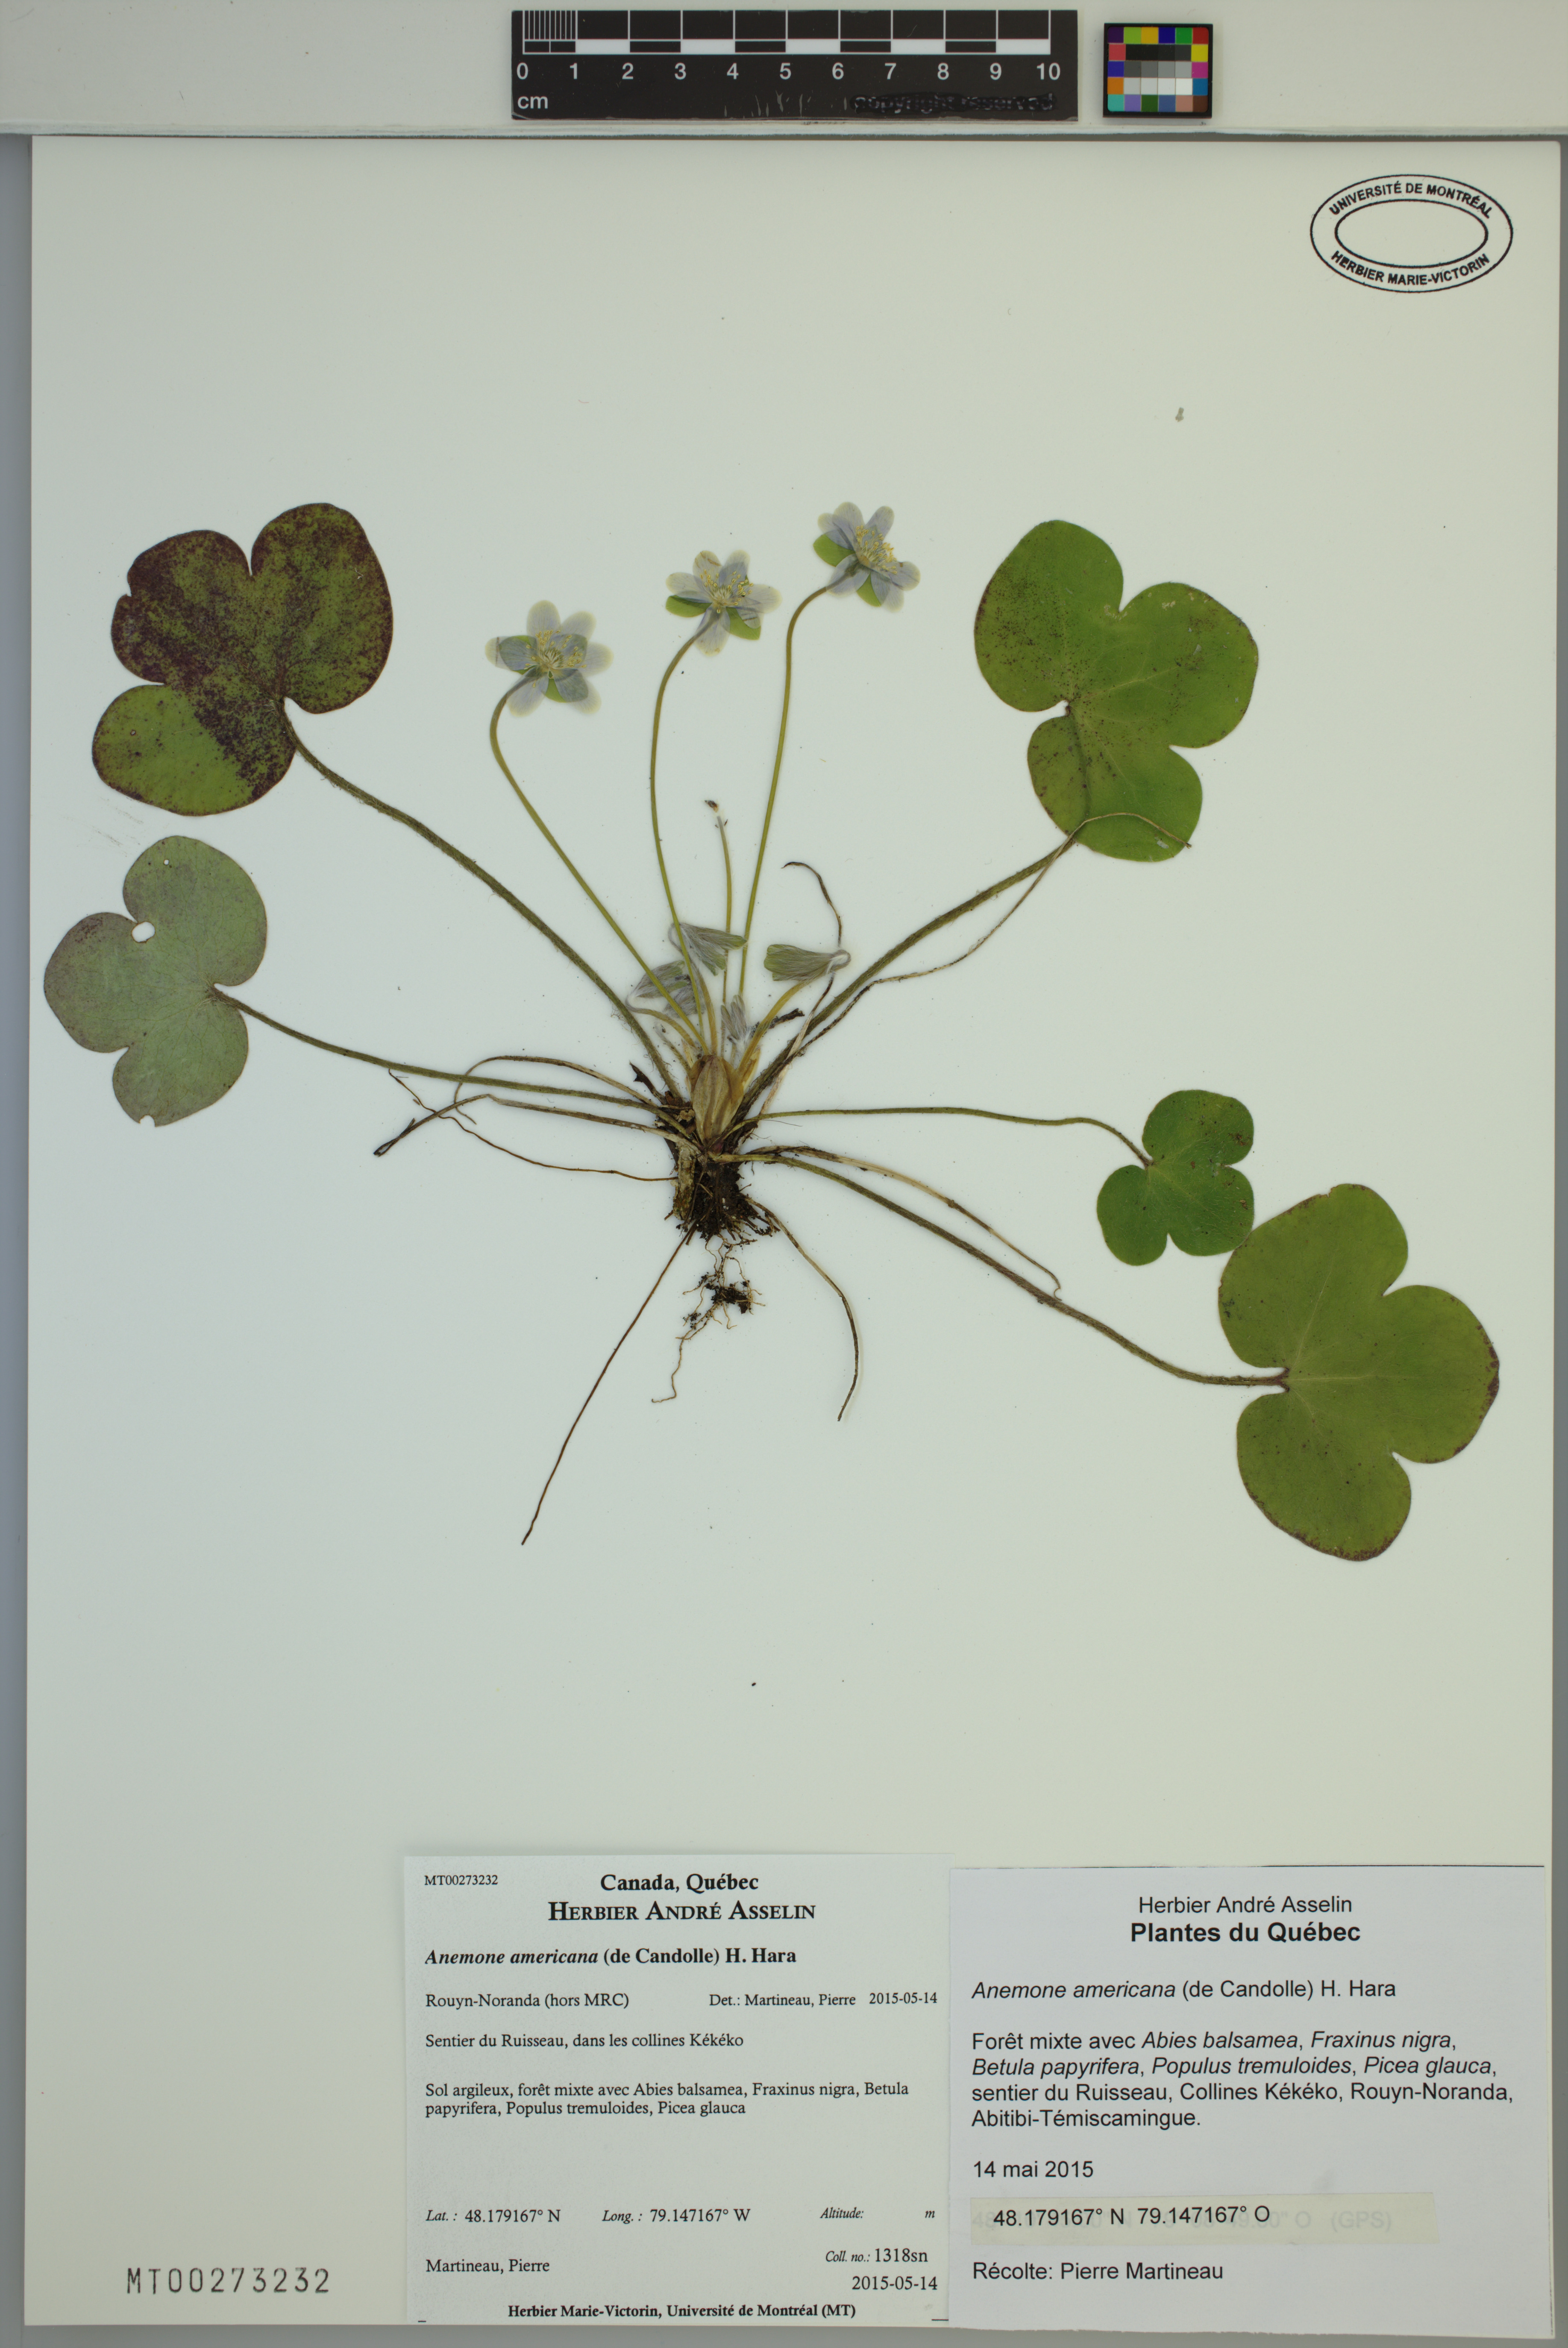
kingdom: Plantae
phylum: Tracheophyta
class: Magnoliopsida
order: Ranunculales
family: Ranunculaceae
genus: Hepatica
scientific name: Hepatica americana
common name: American hepatica
